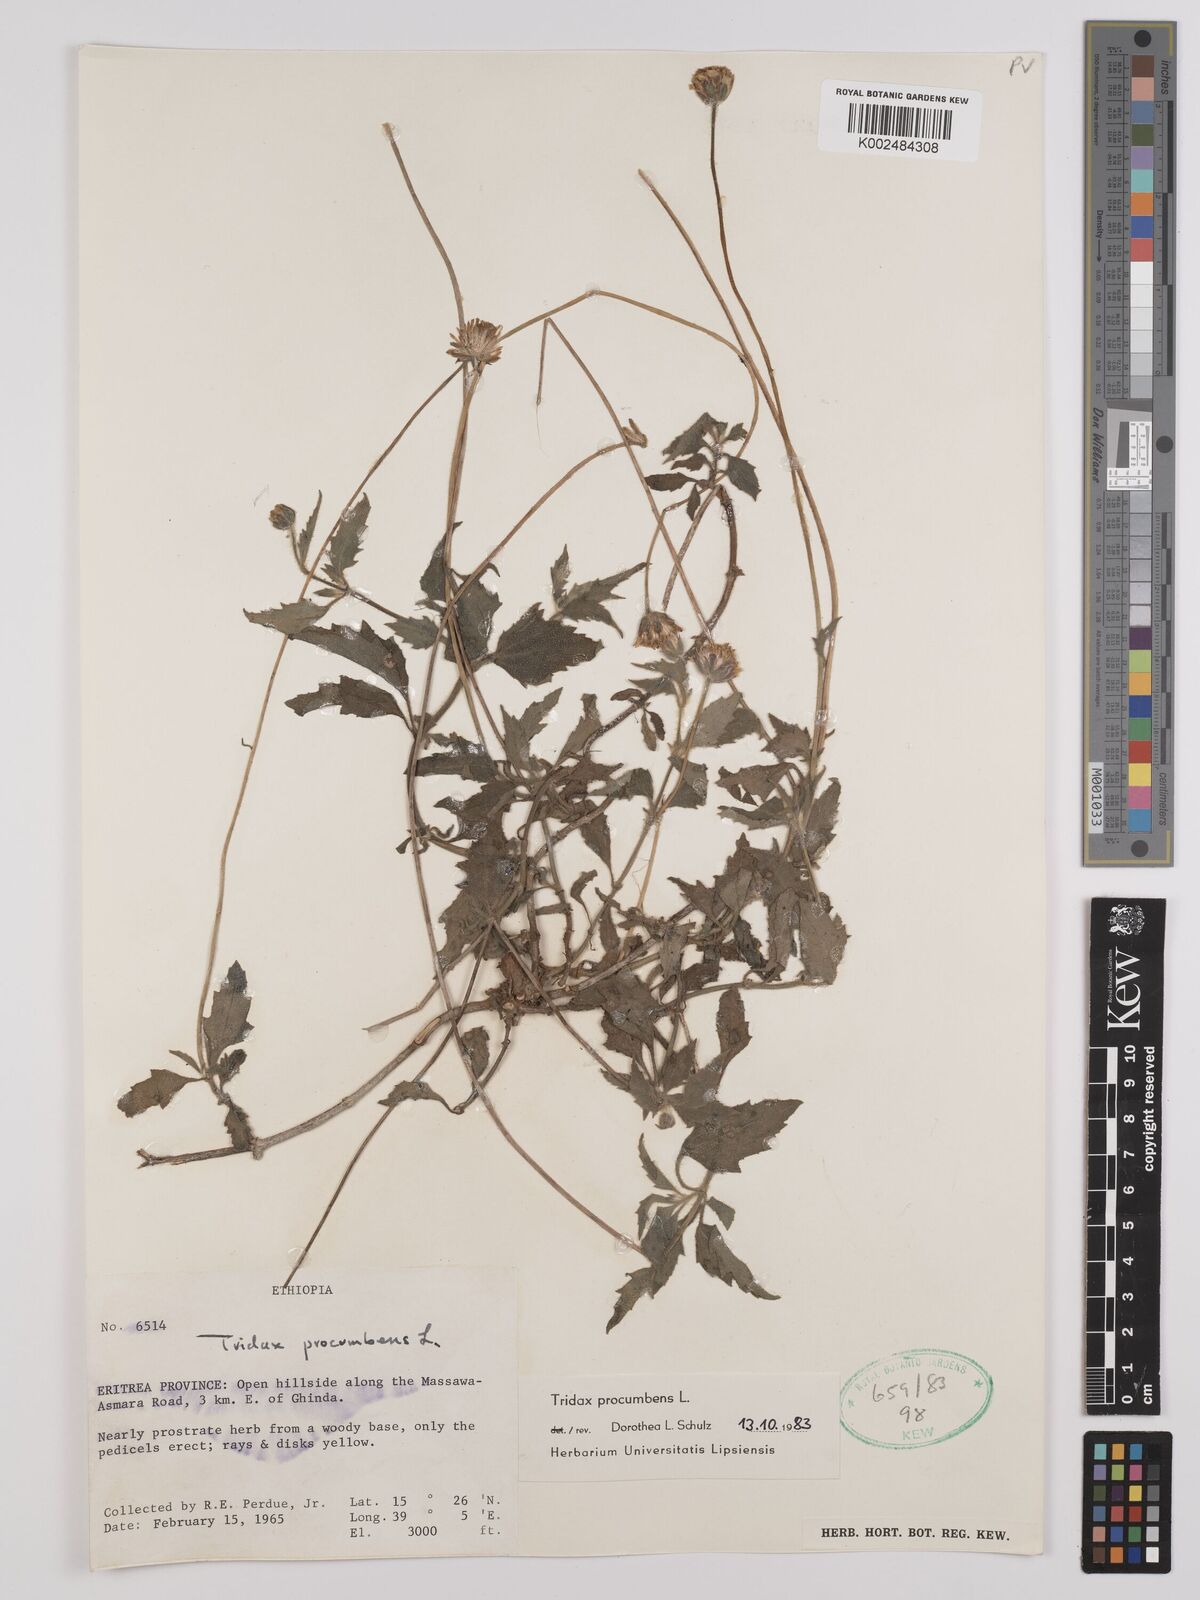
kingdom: Plantae
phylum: Tracheophyta
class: Magnoliopsida
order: Asterales
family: Asteraceae
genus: Tridax
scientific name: Tridax procumbens
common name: Coatbuttons
